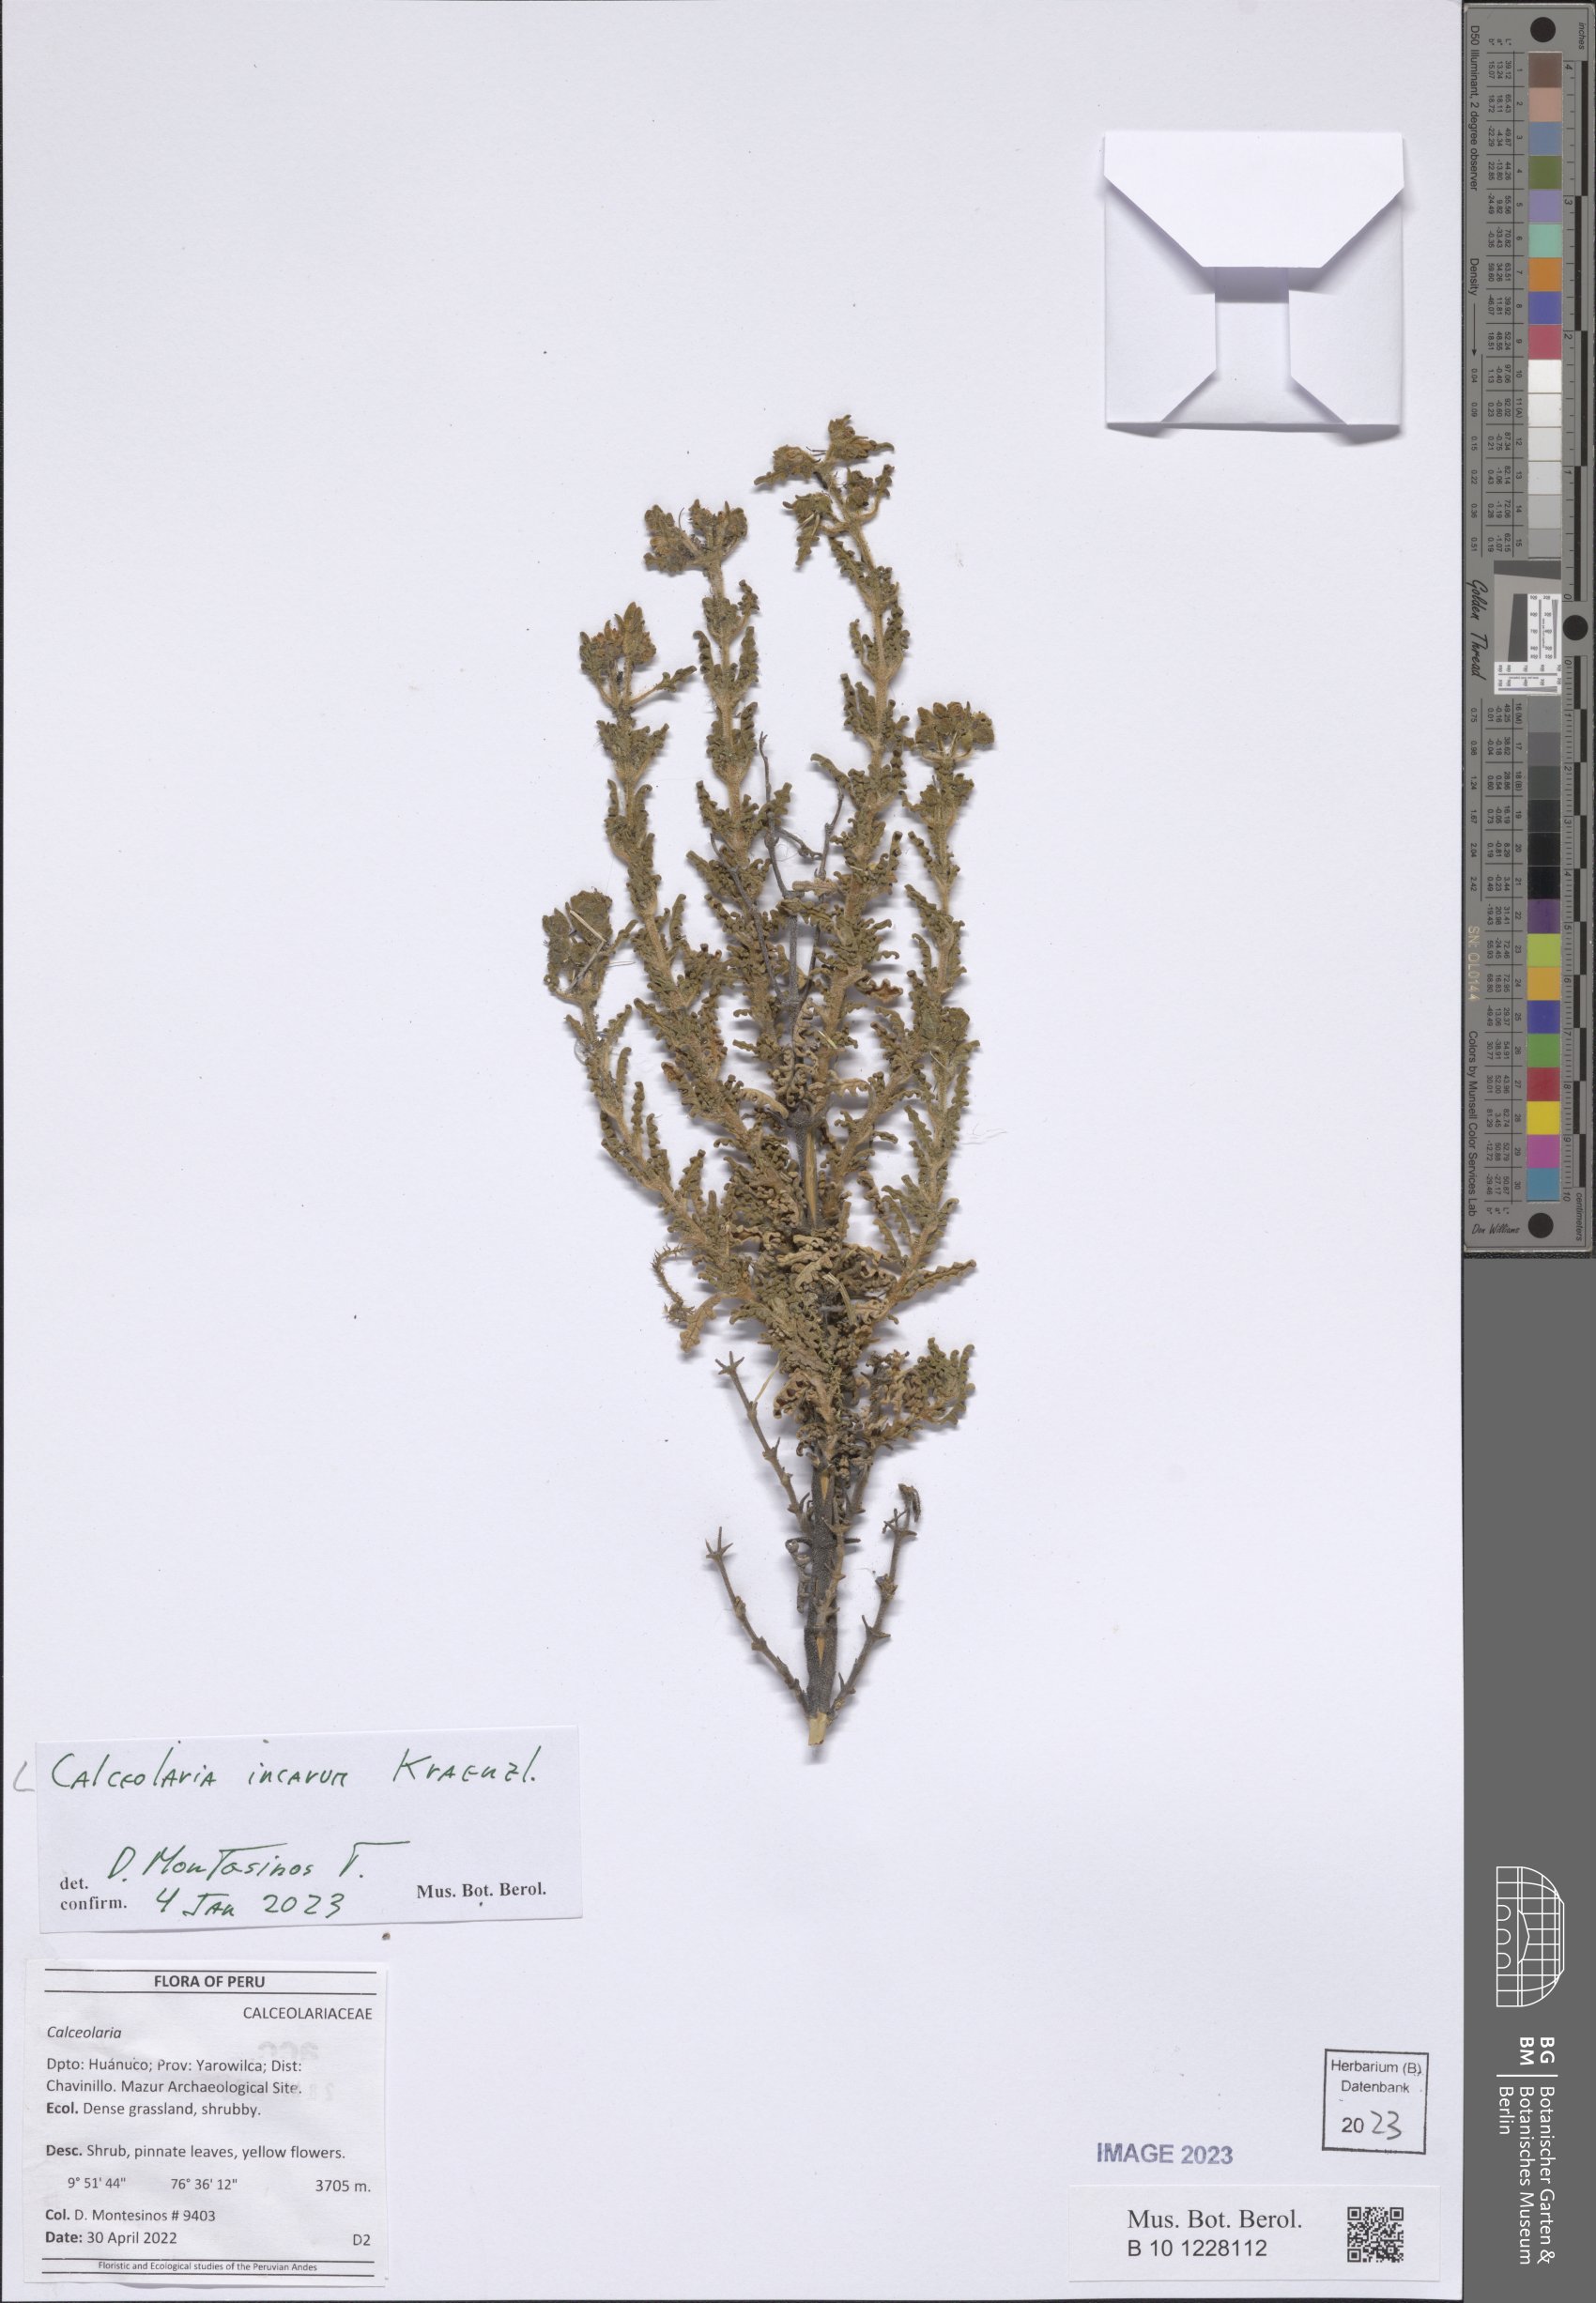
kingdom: Plantae
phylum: Tracheophyta
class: Magnoliopsida
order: Lamiales
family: Calceolariaceae
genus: Calceolaria
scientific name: Calceolaria incarum
